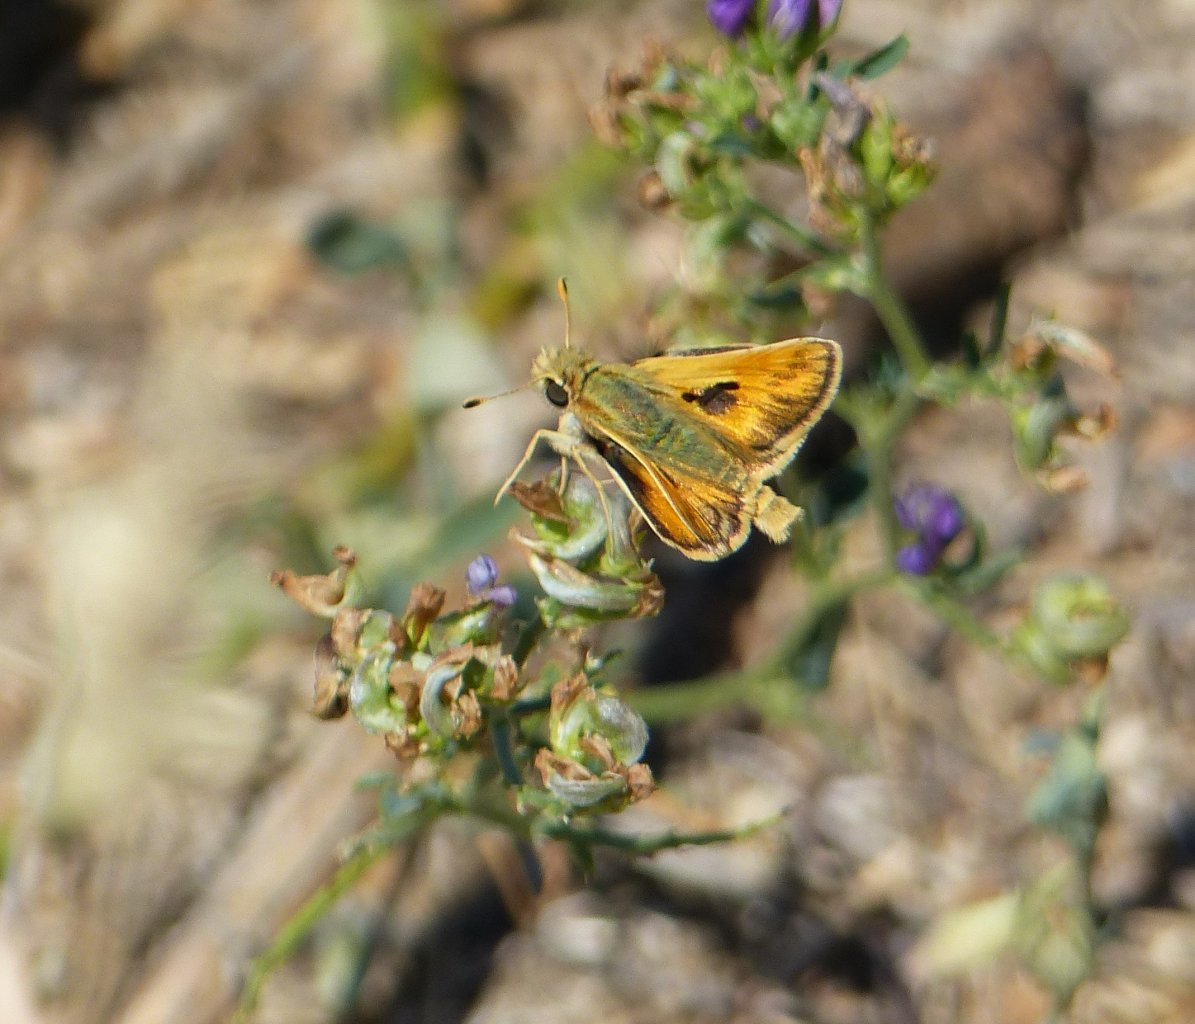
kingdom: Animalia
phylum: Arthropoda
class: Insecta
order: Lepidoptera
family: Hesperiidae
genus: Ochlodes
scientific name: Ochlodes sylvanoides
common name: Woodland Skipper
